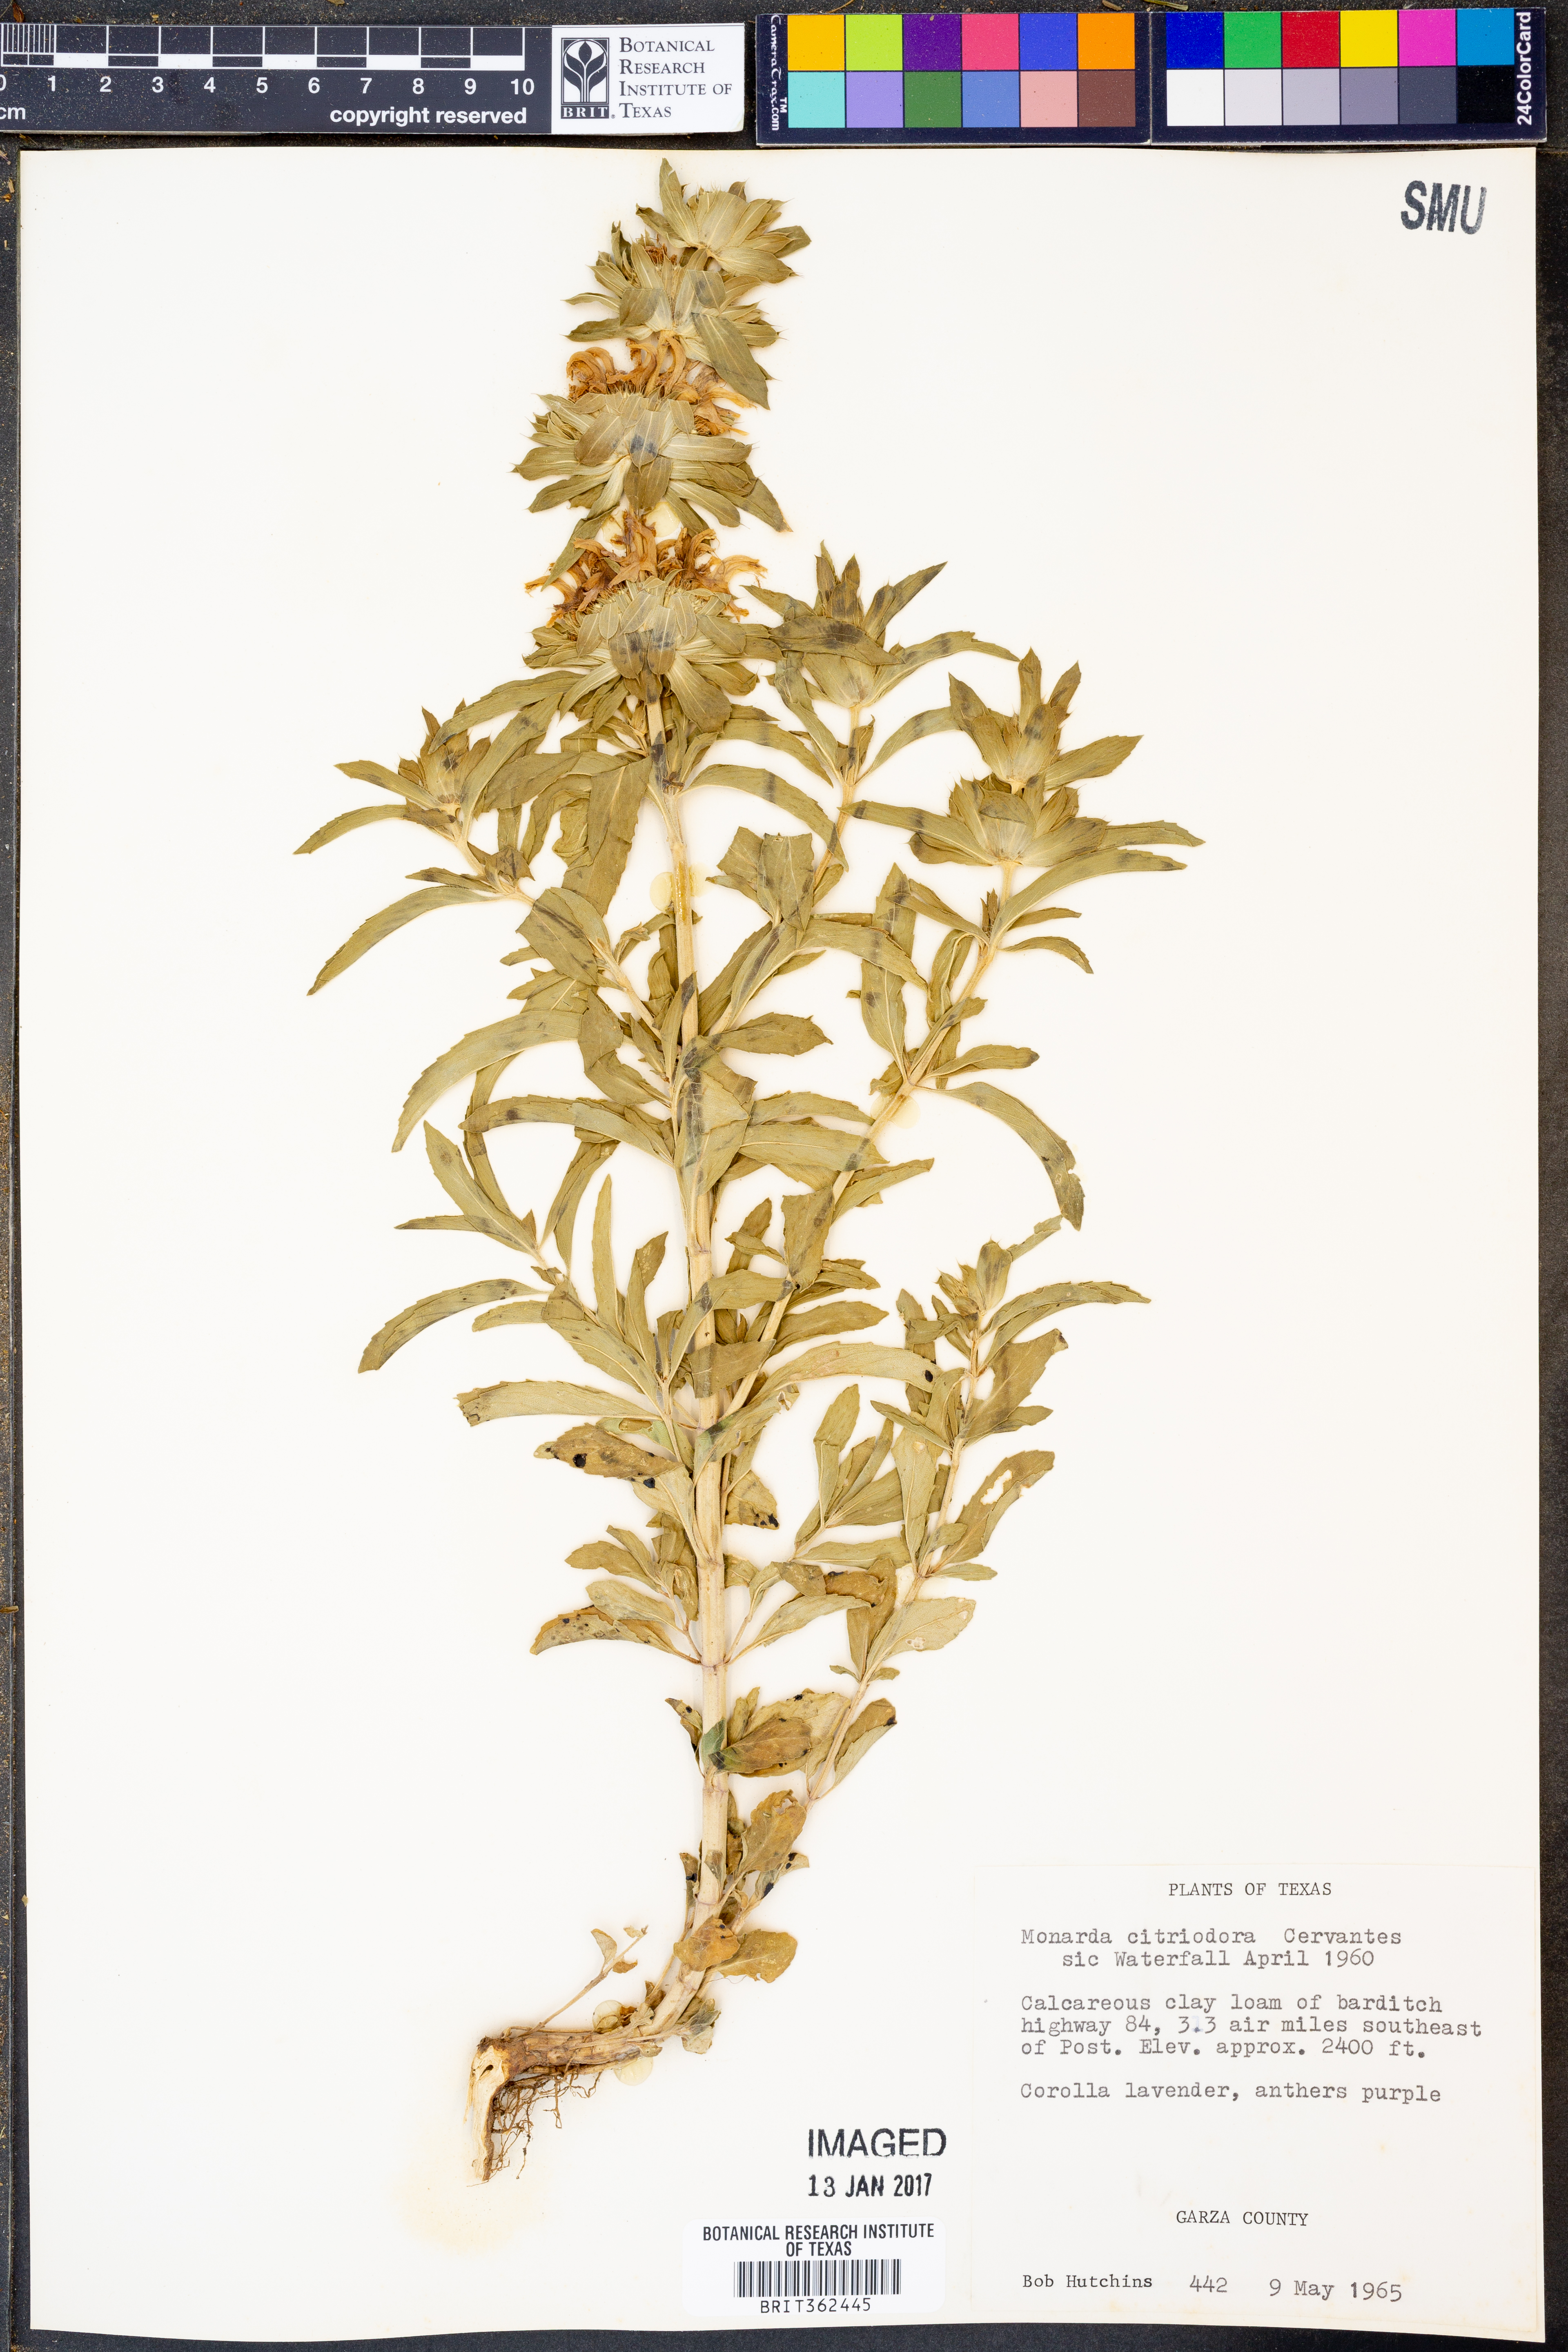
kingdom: Plantae
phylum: Tracheophyta
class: Magnoliopsida
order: Lamiales
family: Lamiaceae
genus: Monarda
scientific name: Monarda citriodora
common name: Lemon beebalm
